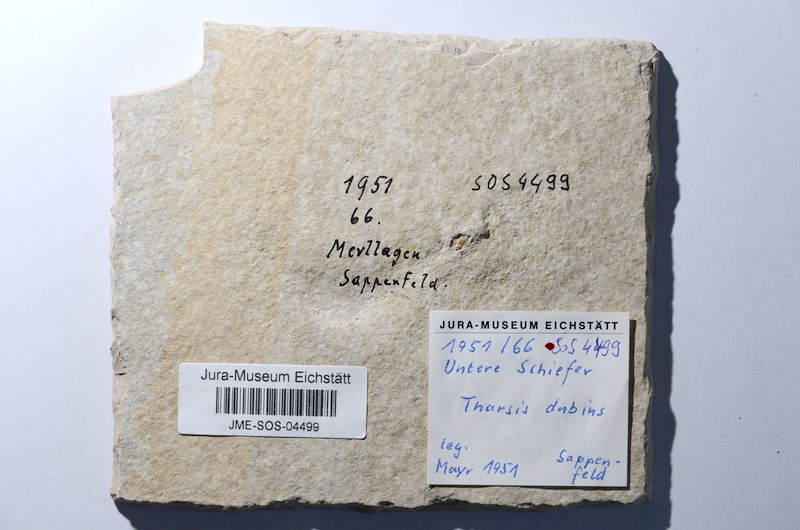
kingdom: Animalia
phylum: Chordata
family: Ascalaboidae
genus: Tharsis
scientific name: Tharsis dubius
